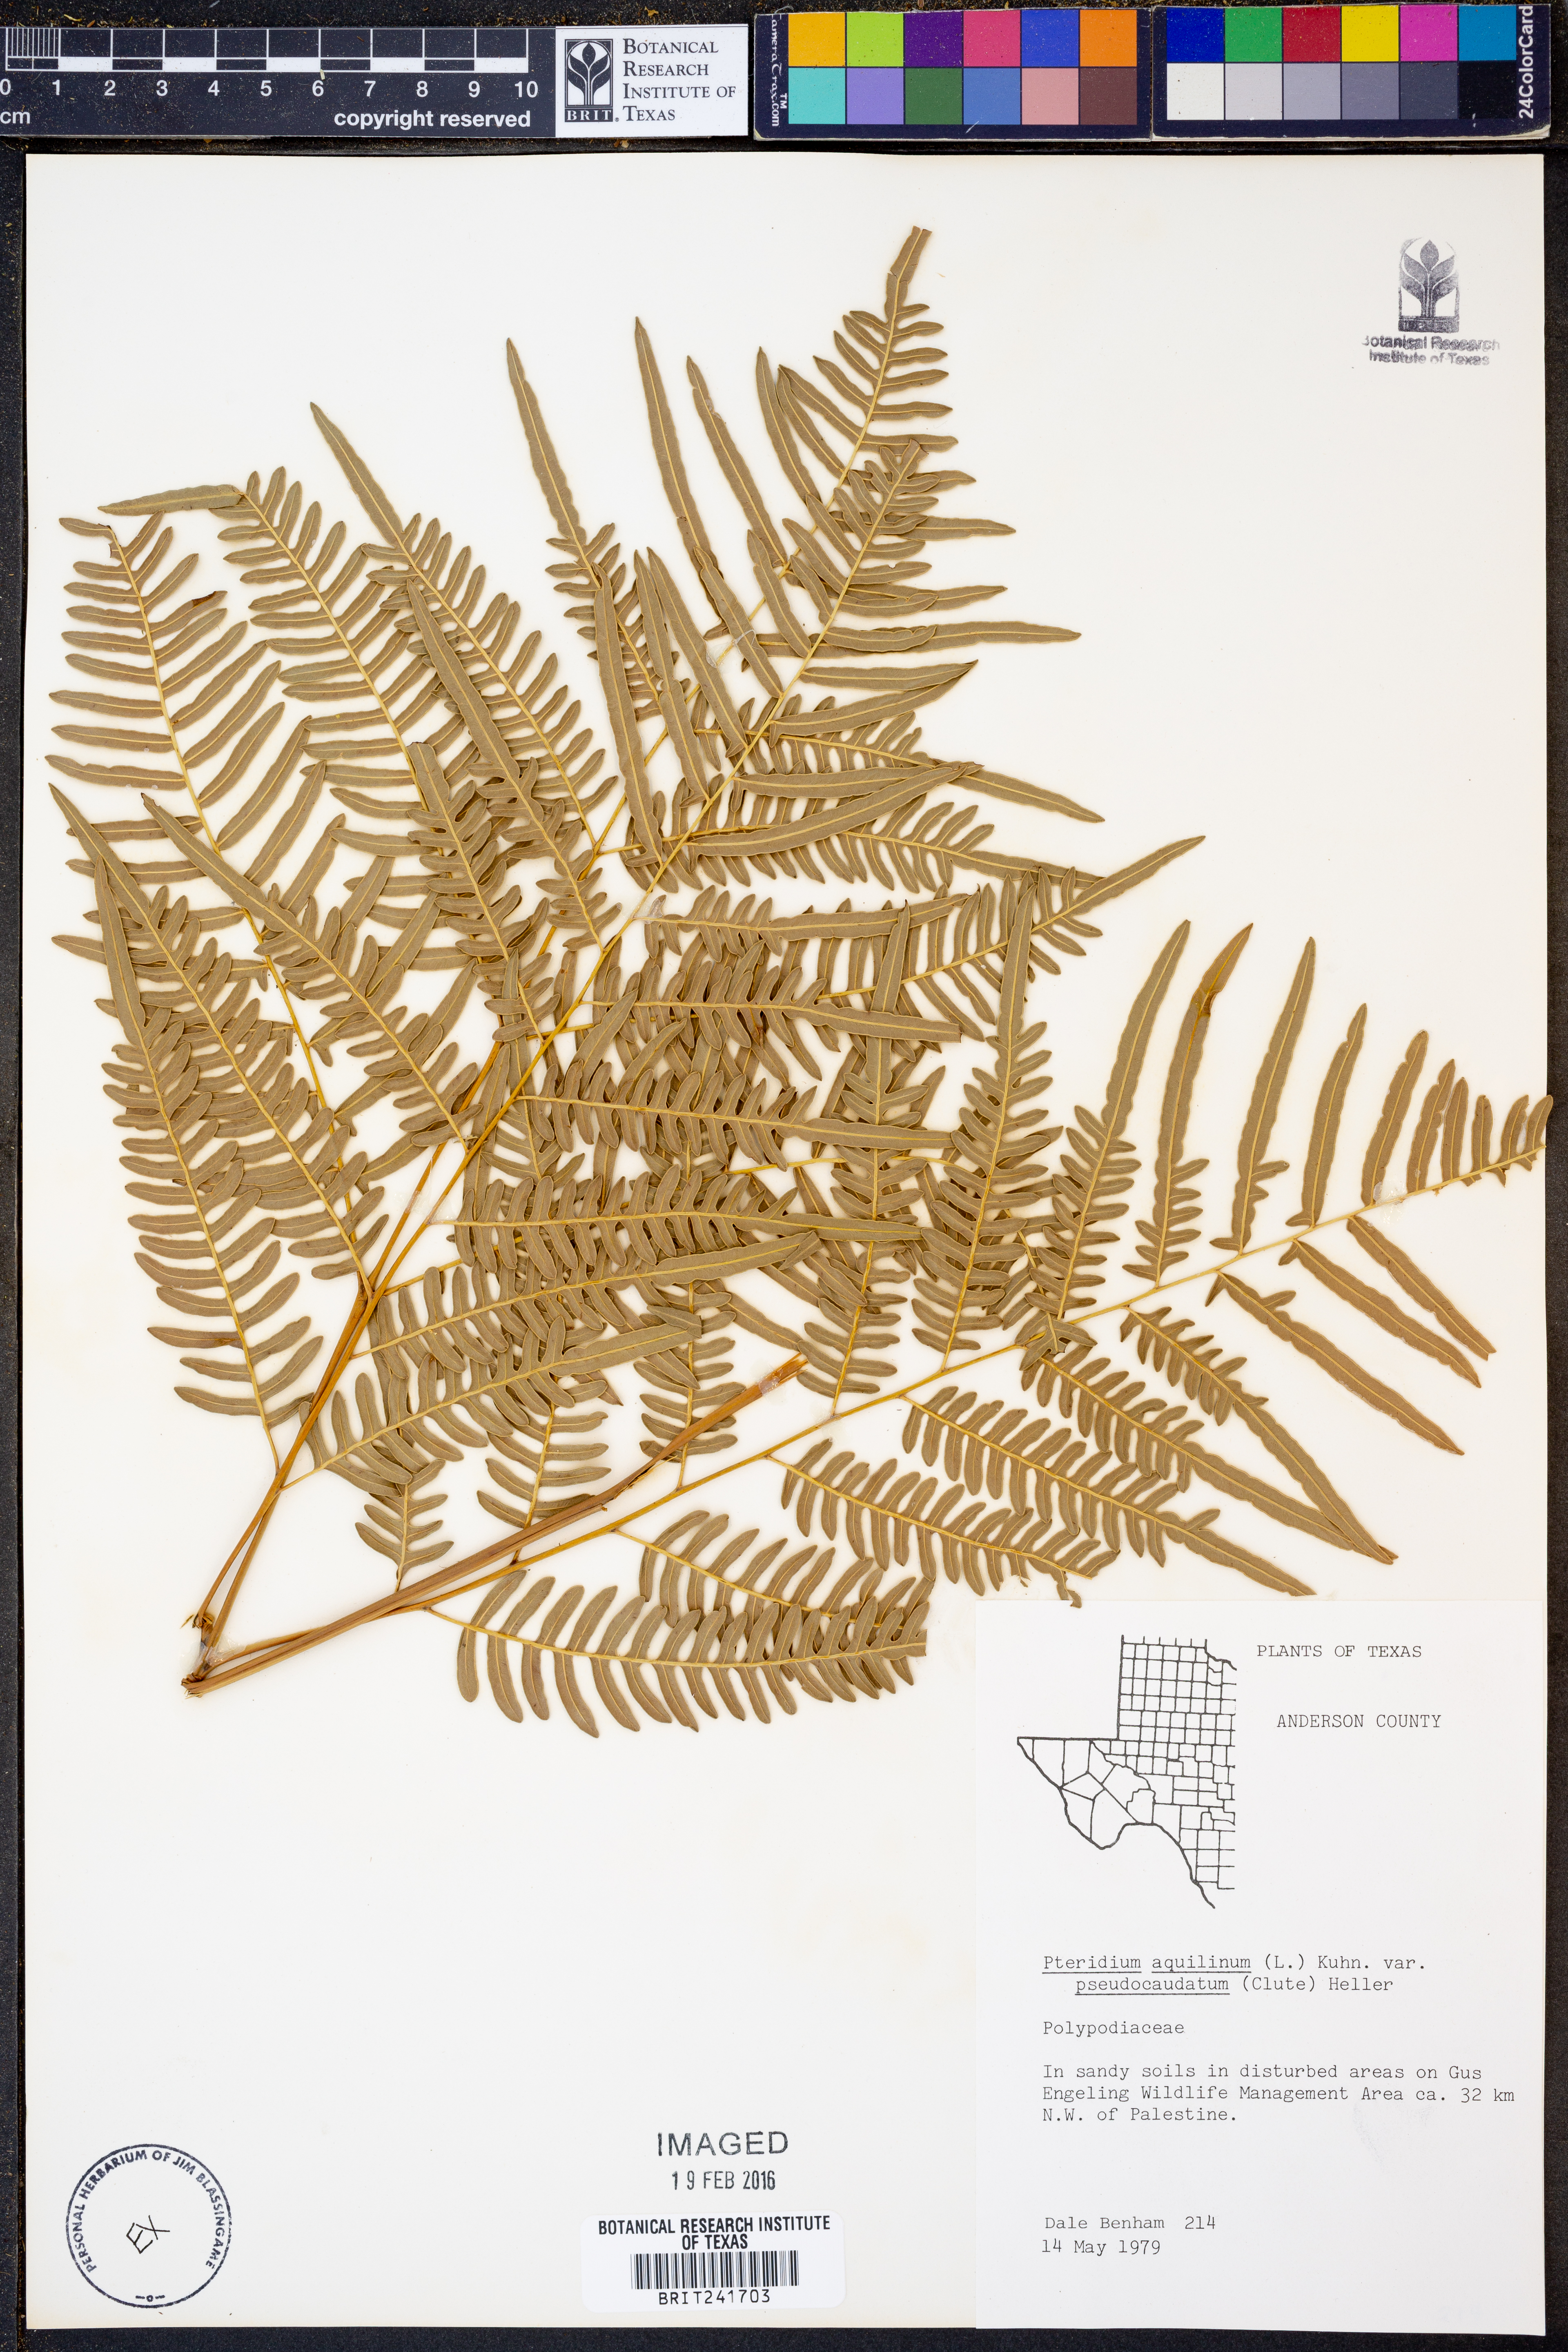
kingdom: Plantae
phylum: Tracheophyta
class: Polypodiopsida
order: Polypodiales
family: Dennstaedtiaceae
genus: Pteridium
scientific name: Pteridium aquilinum
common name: Bracken
